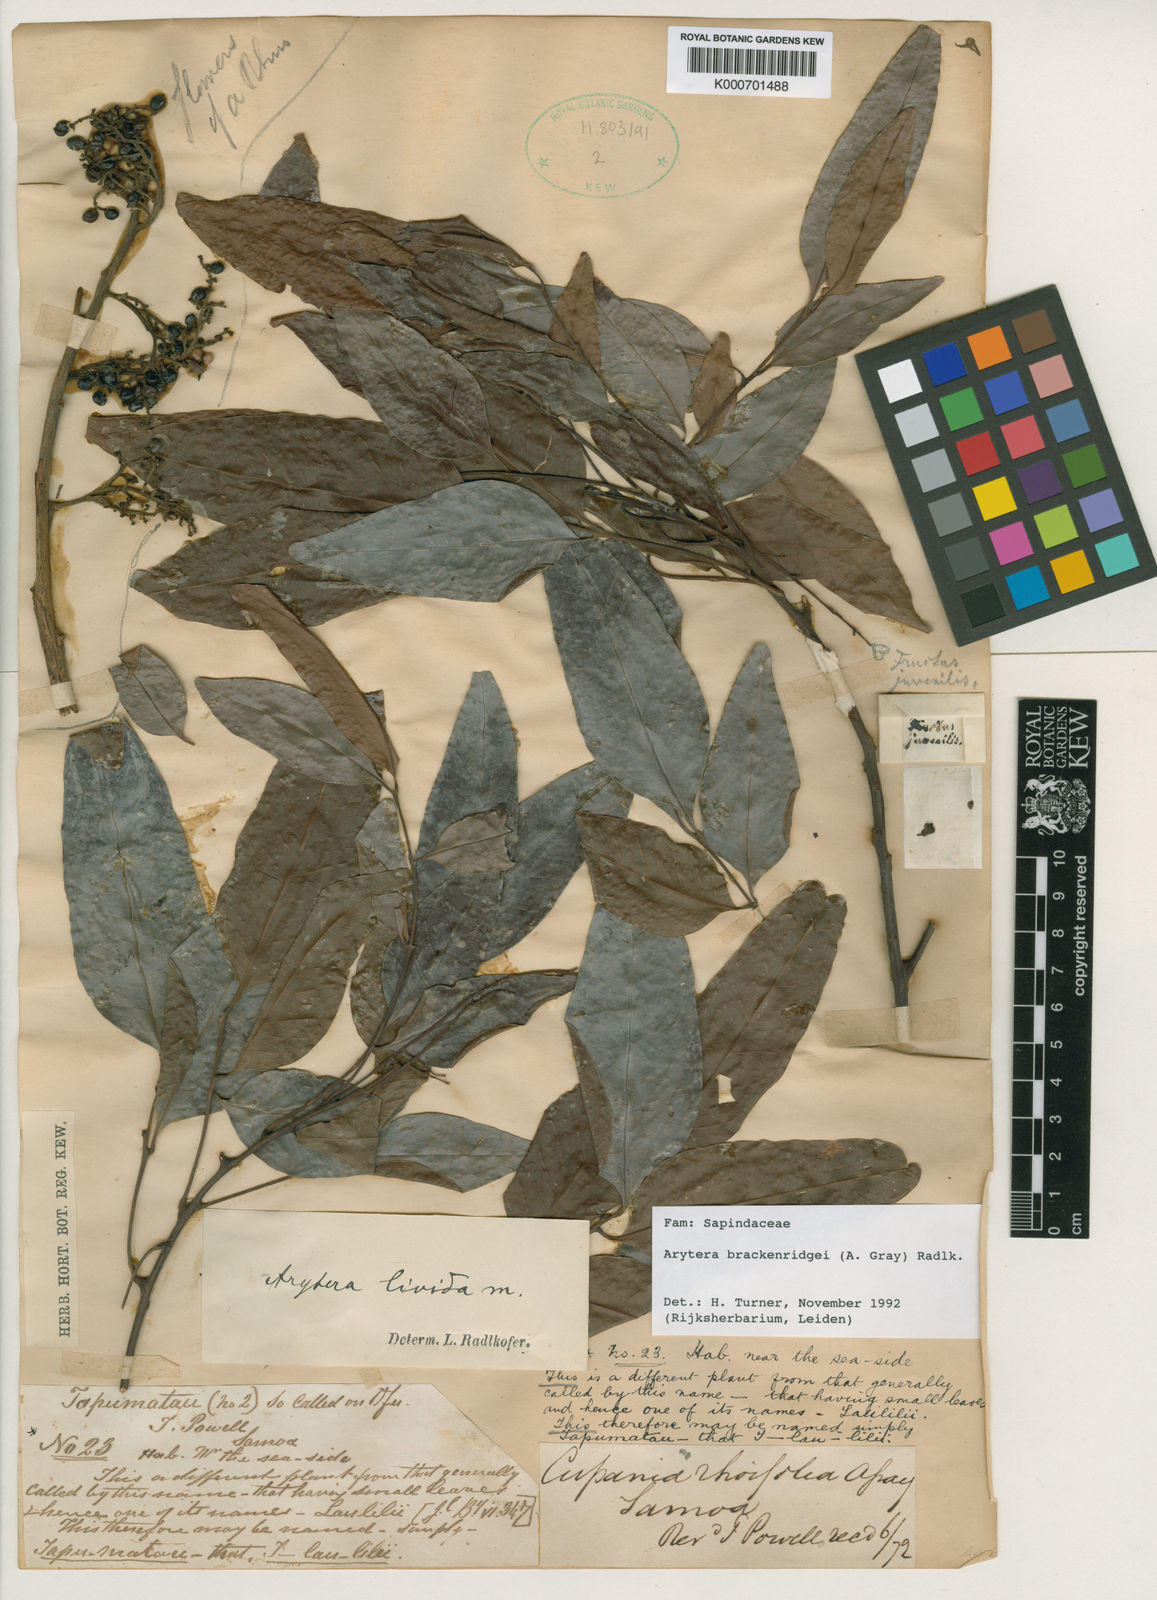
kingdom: Plantae
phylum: Tracheophyta
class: Magnoliopsida
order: Sapindales
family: Sapindaceae
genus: Lepidocupania
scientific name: Lepidocupania brackenridgei
